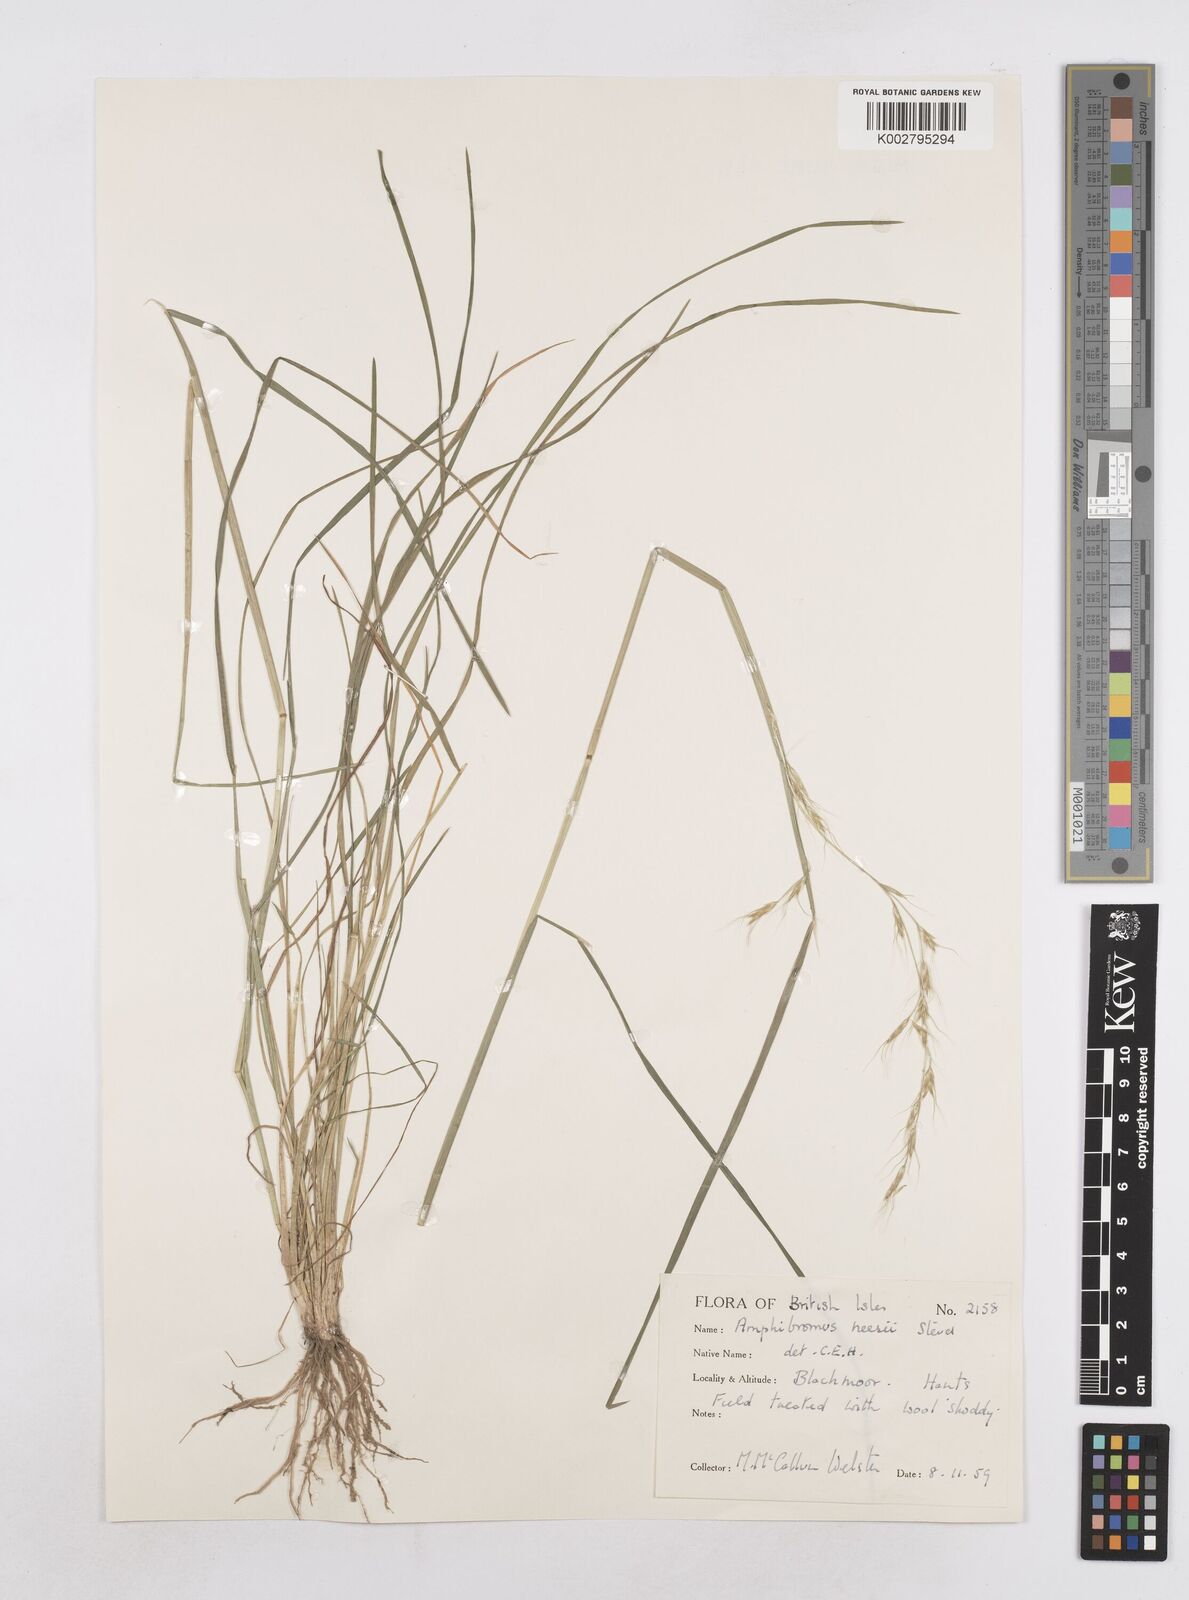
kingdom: Plantae
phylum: Tracheophyta
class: Liliopsida
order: Poales
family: Poaceae
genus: Amphibromus
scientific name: Amphibromus neesii
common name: Australian wallaby grass
